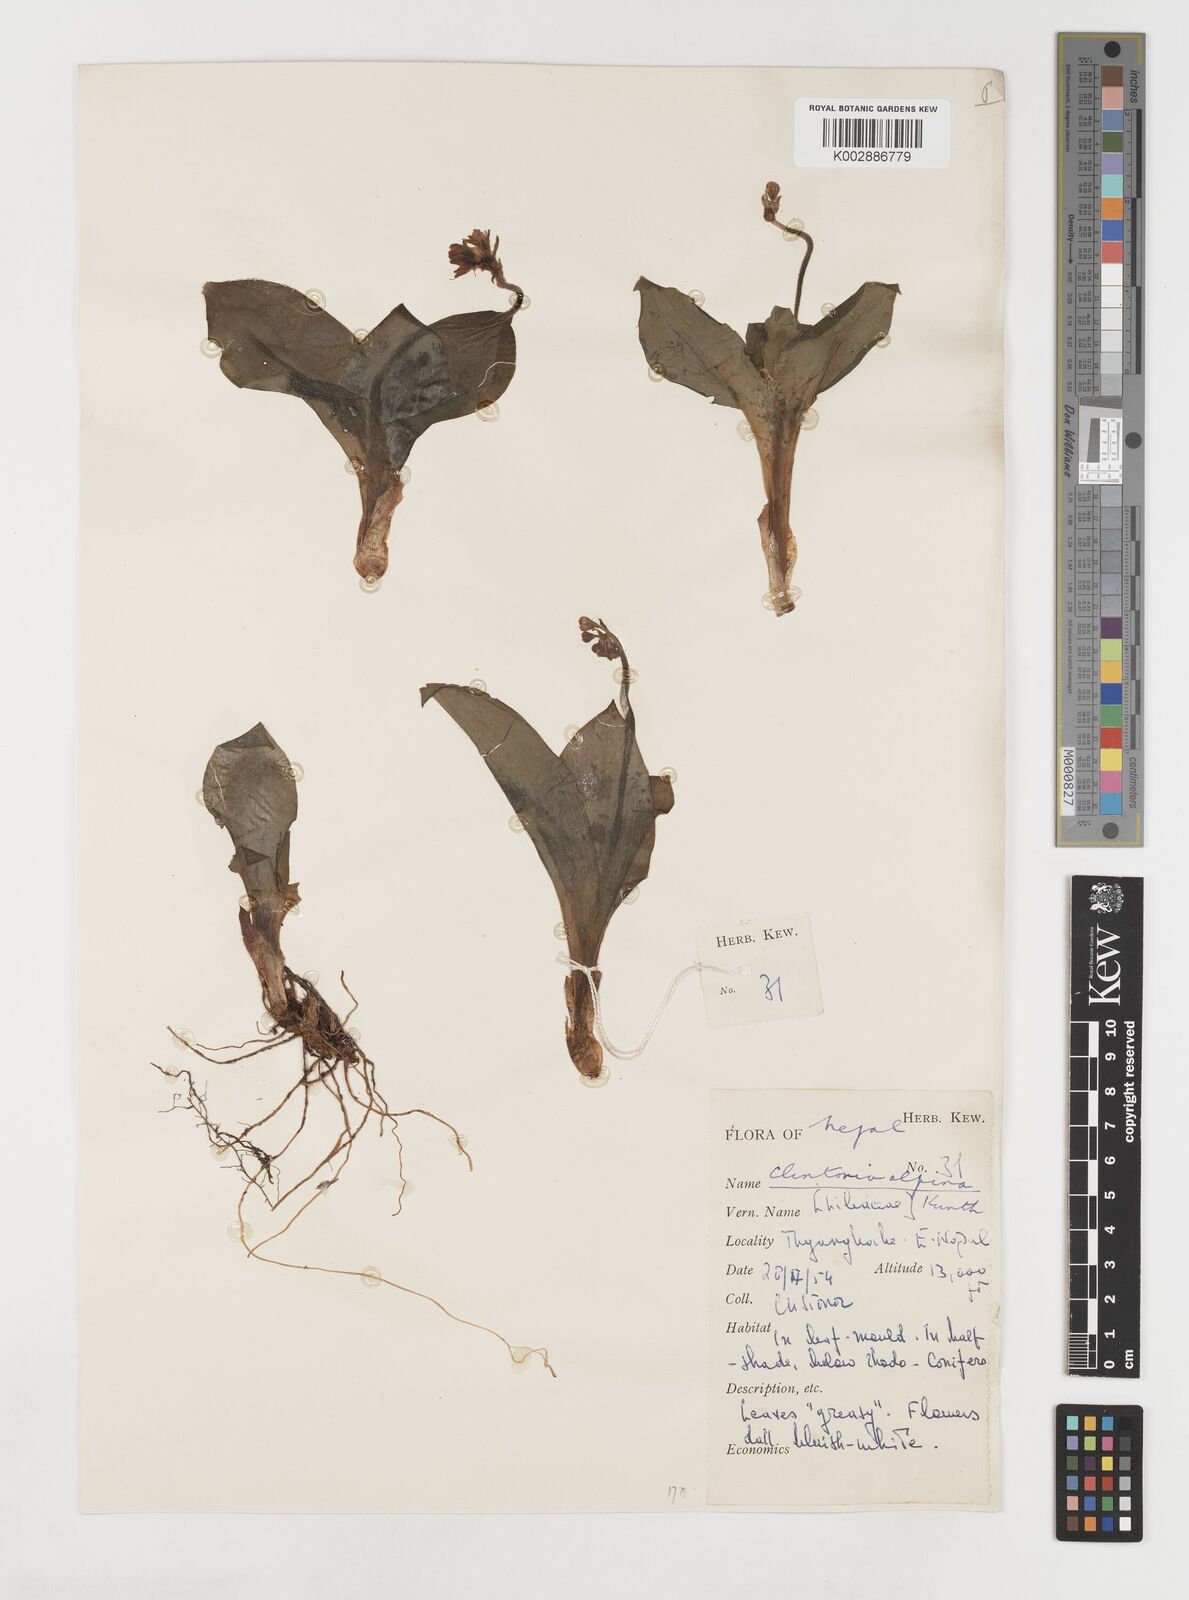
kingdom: Plantae
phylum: Tracheophyta
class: Liliopsida
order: Liliales
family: Liliaceae
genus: Clintonia
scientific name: Clintonia udensis
